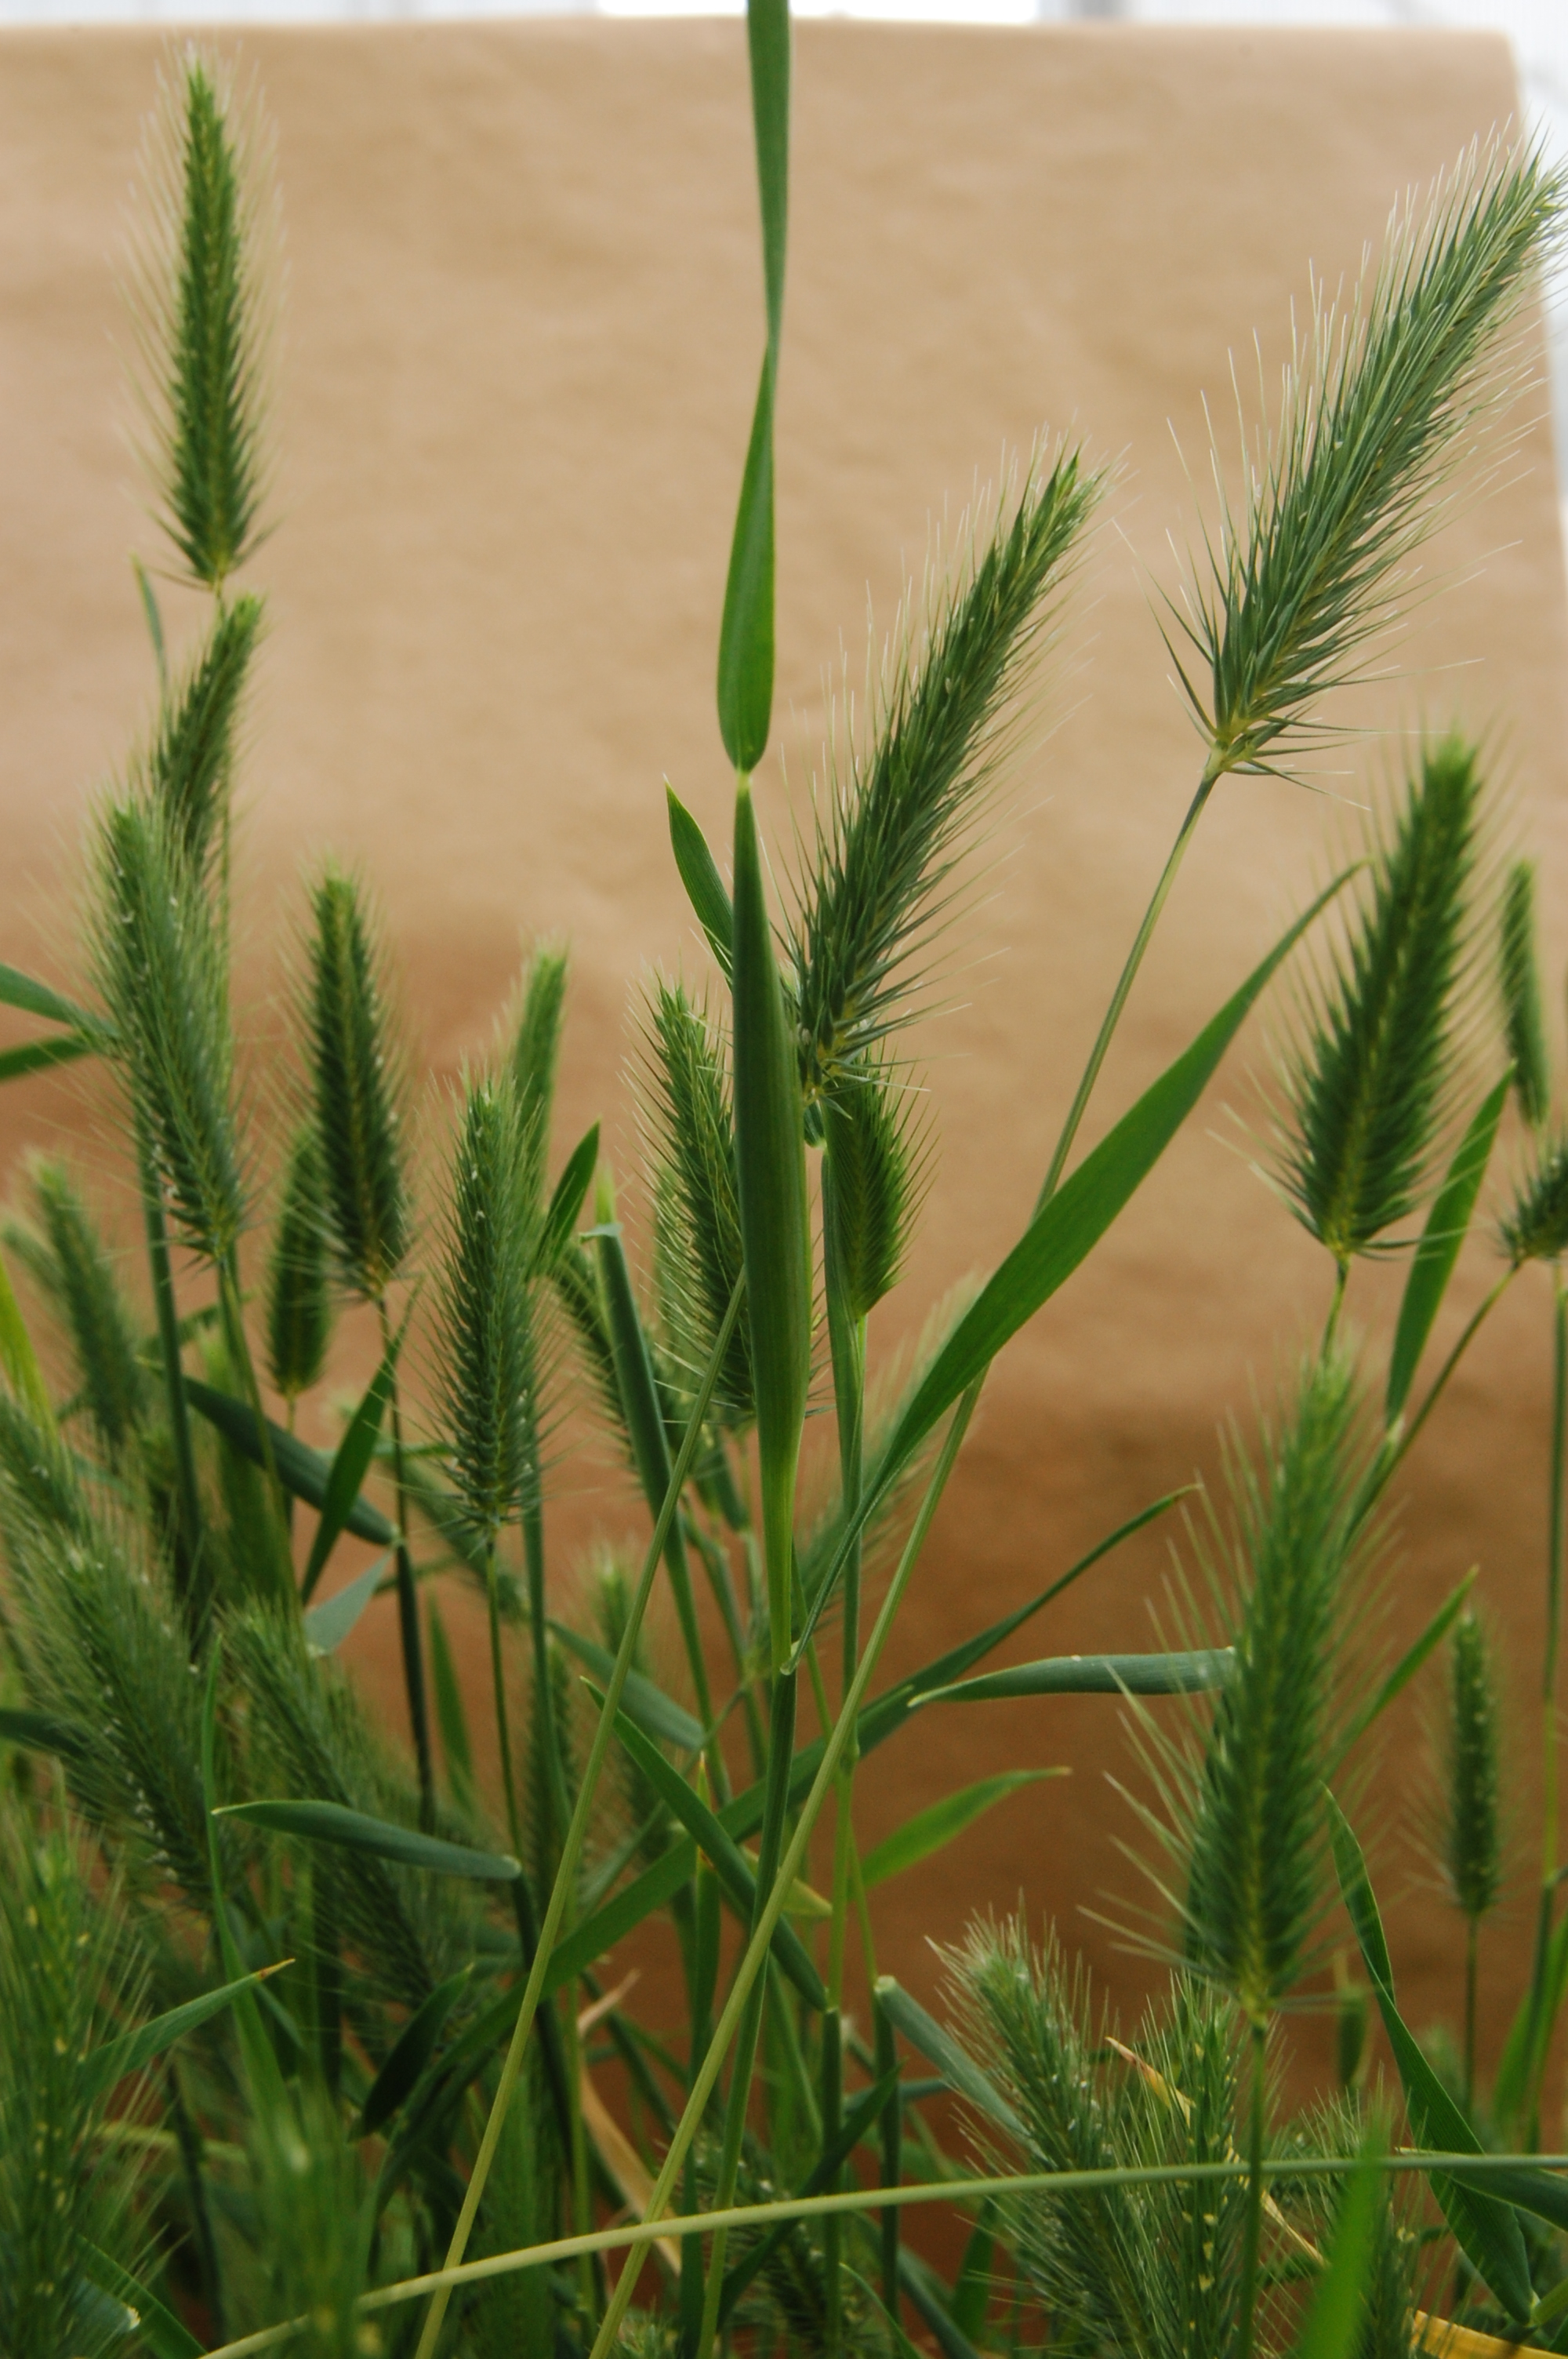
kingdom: Plantae
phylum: Tracheophyta
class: Liliopsida
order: Poales
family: Poaceae
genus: Hordeum
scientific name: Hordeum marinum
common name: Sea barley
